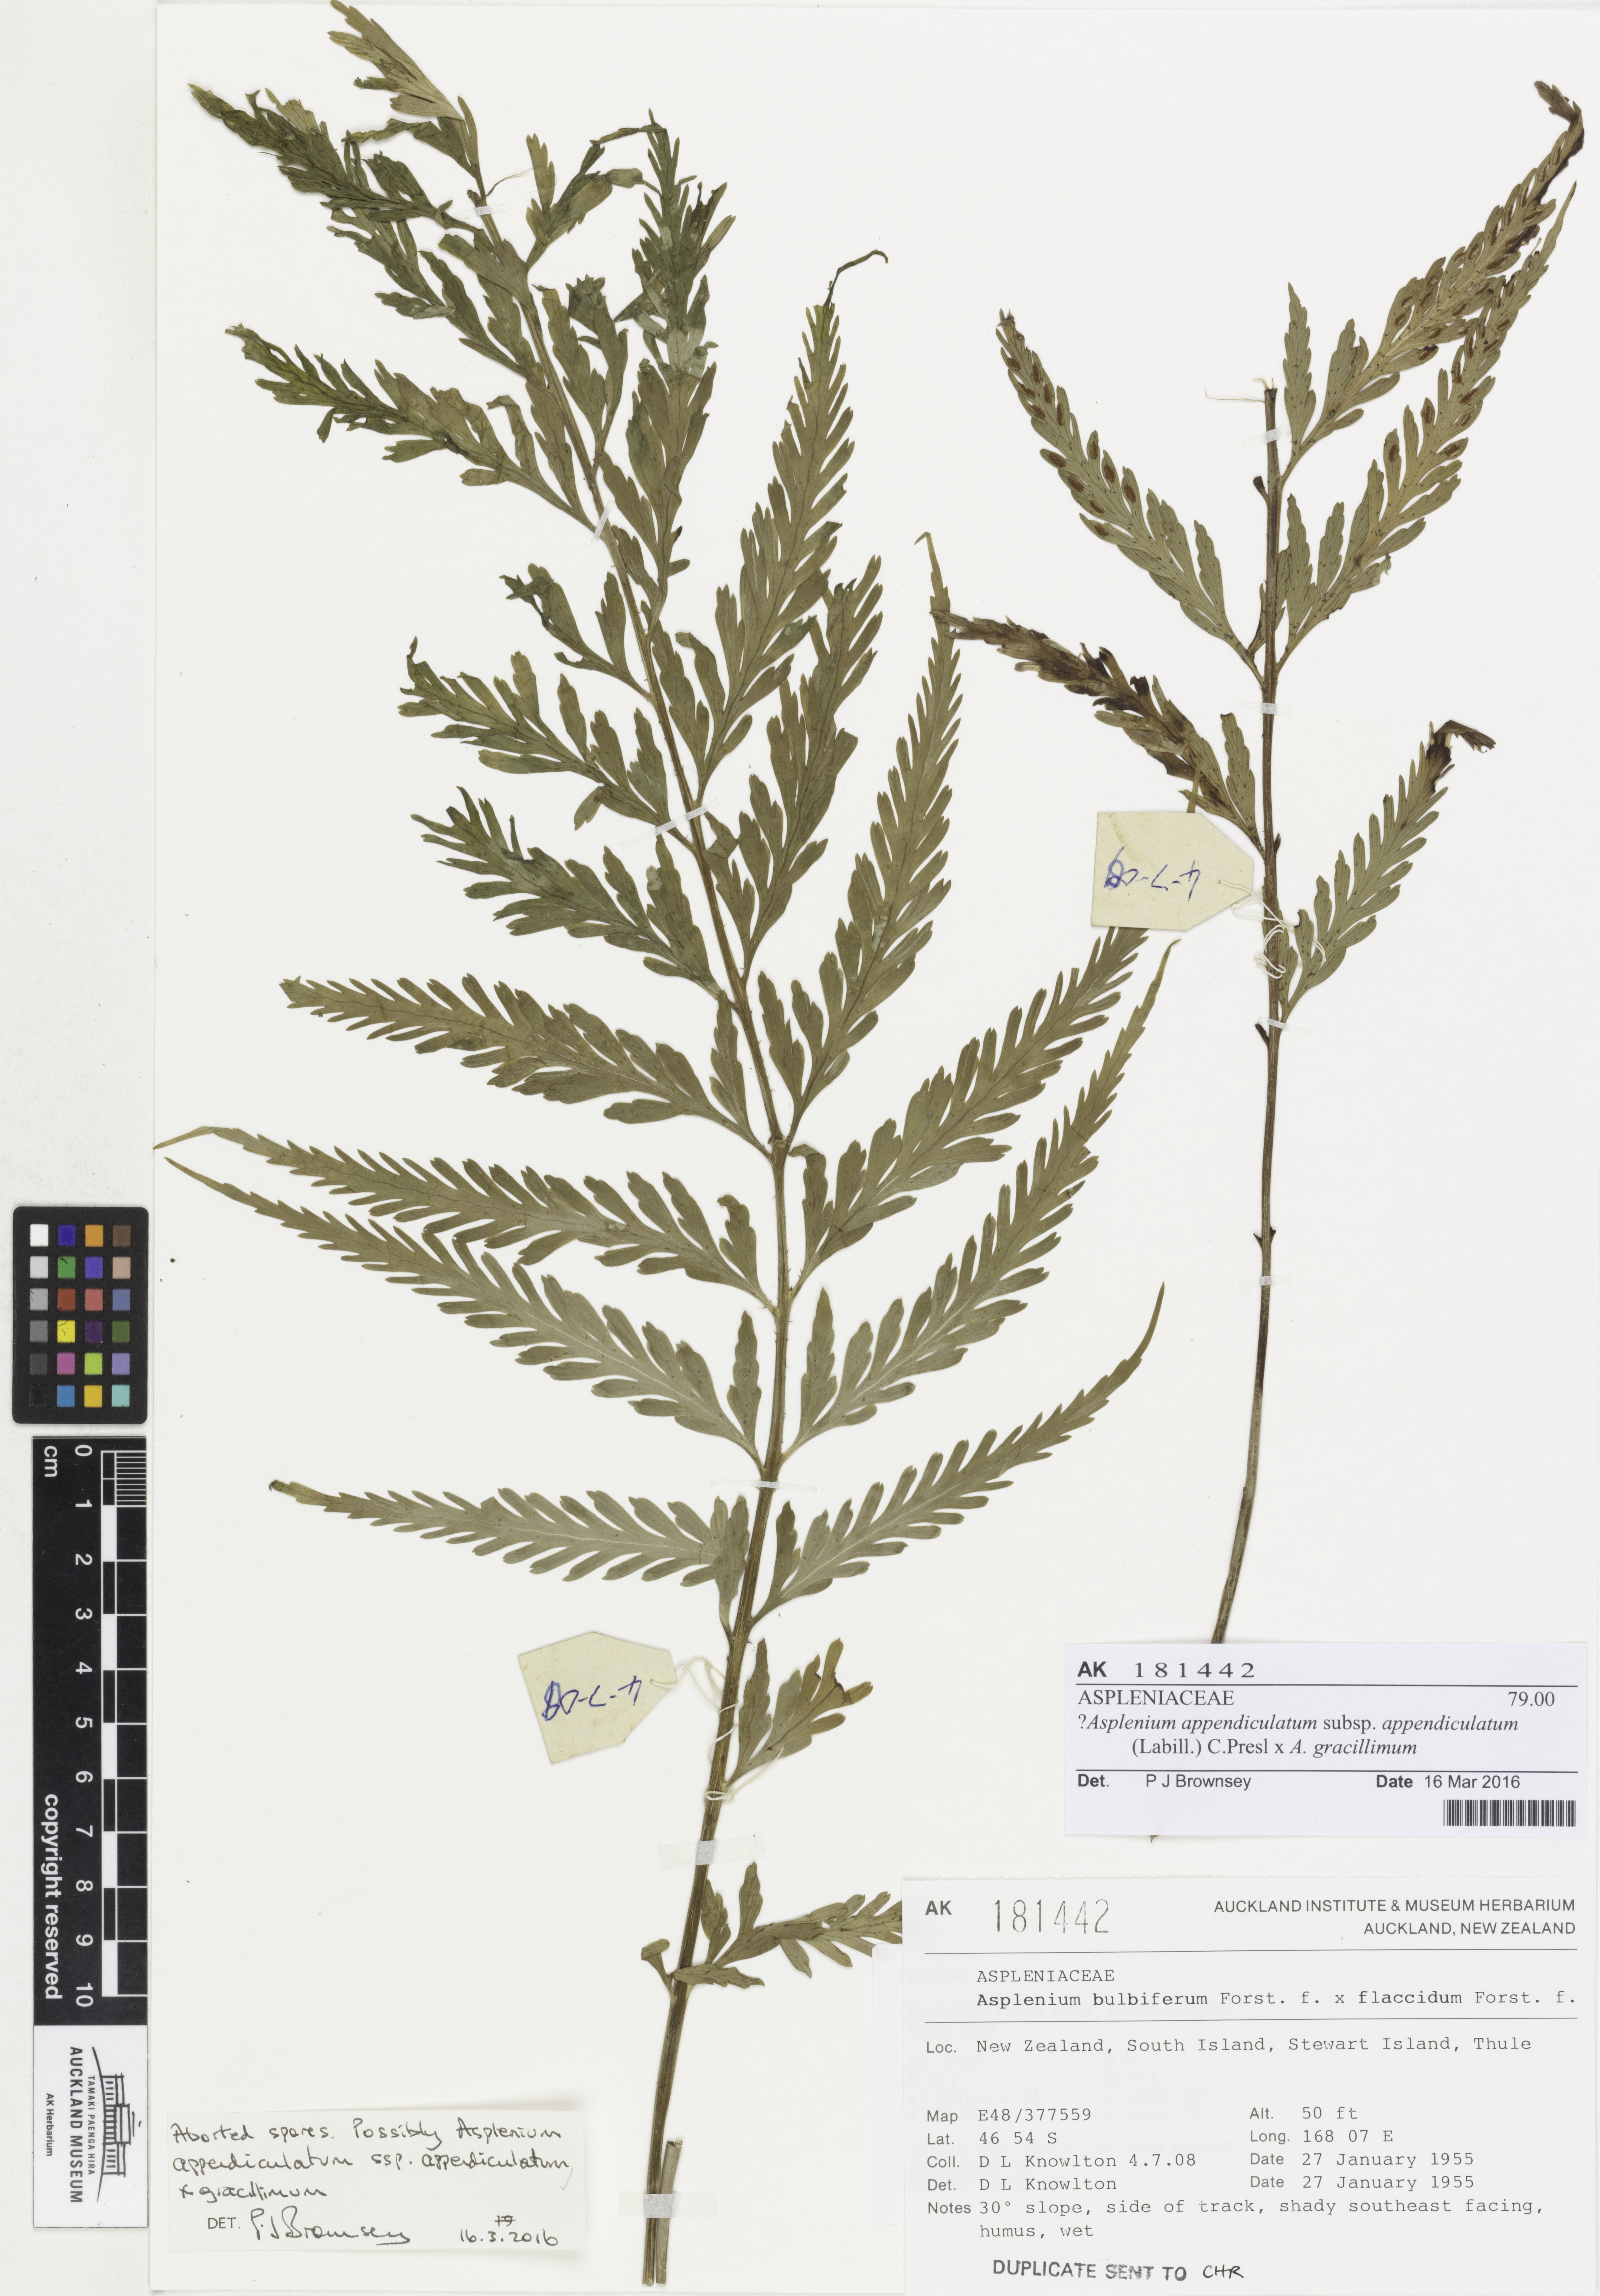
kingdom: Plantae
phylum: Tracheophyta
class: Polypodiopsida
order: Polypodiales
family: Aspleniaceae
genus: Asplenium
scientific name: Asplenium
